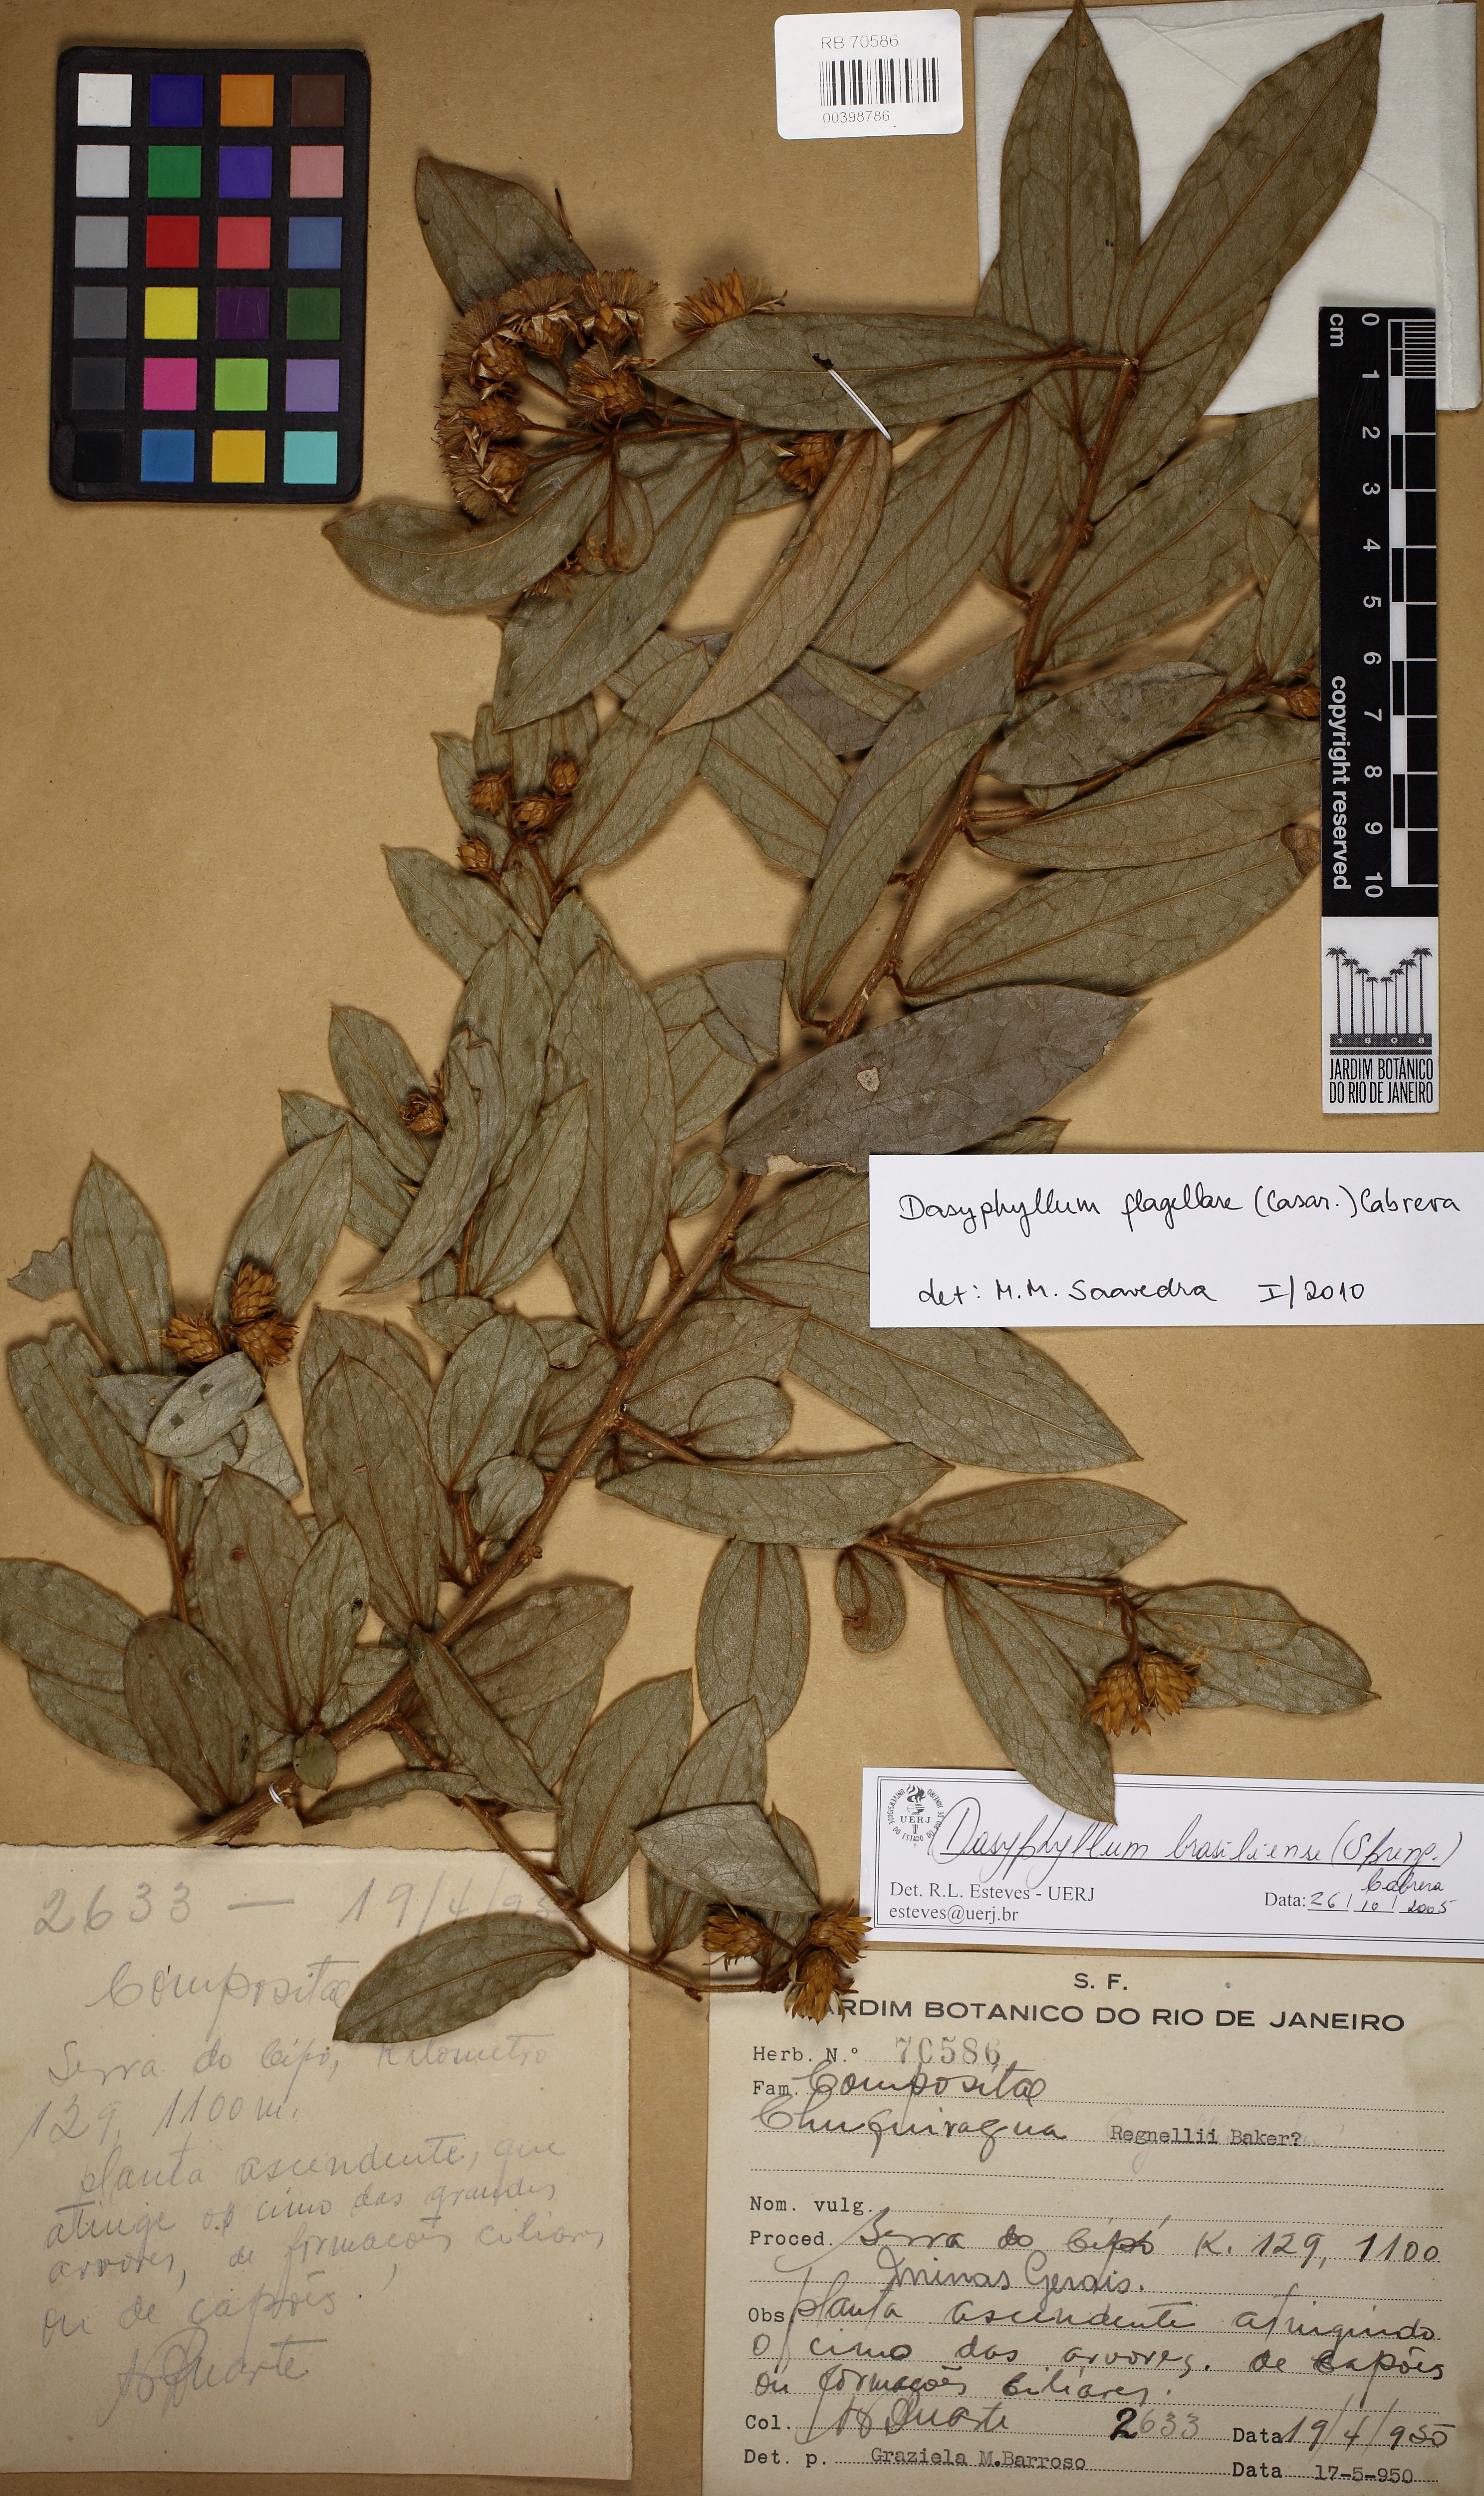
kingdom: Plantae
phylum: Tracheophyta
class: Magnoliopsida
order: Asterales
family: Asteraceae
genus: Dasyphyllum
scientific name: Dasyphyllum flagellare
